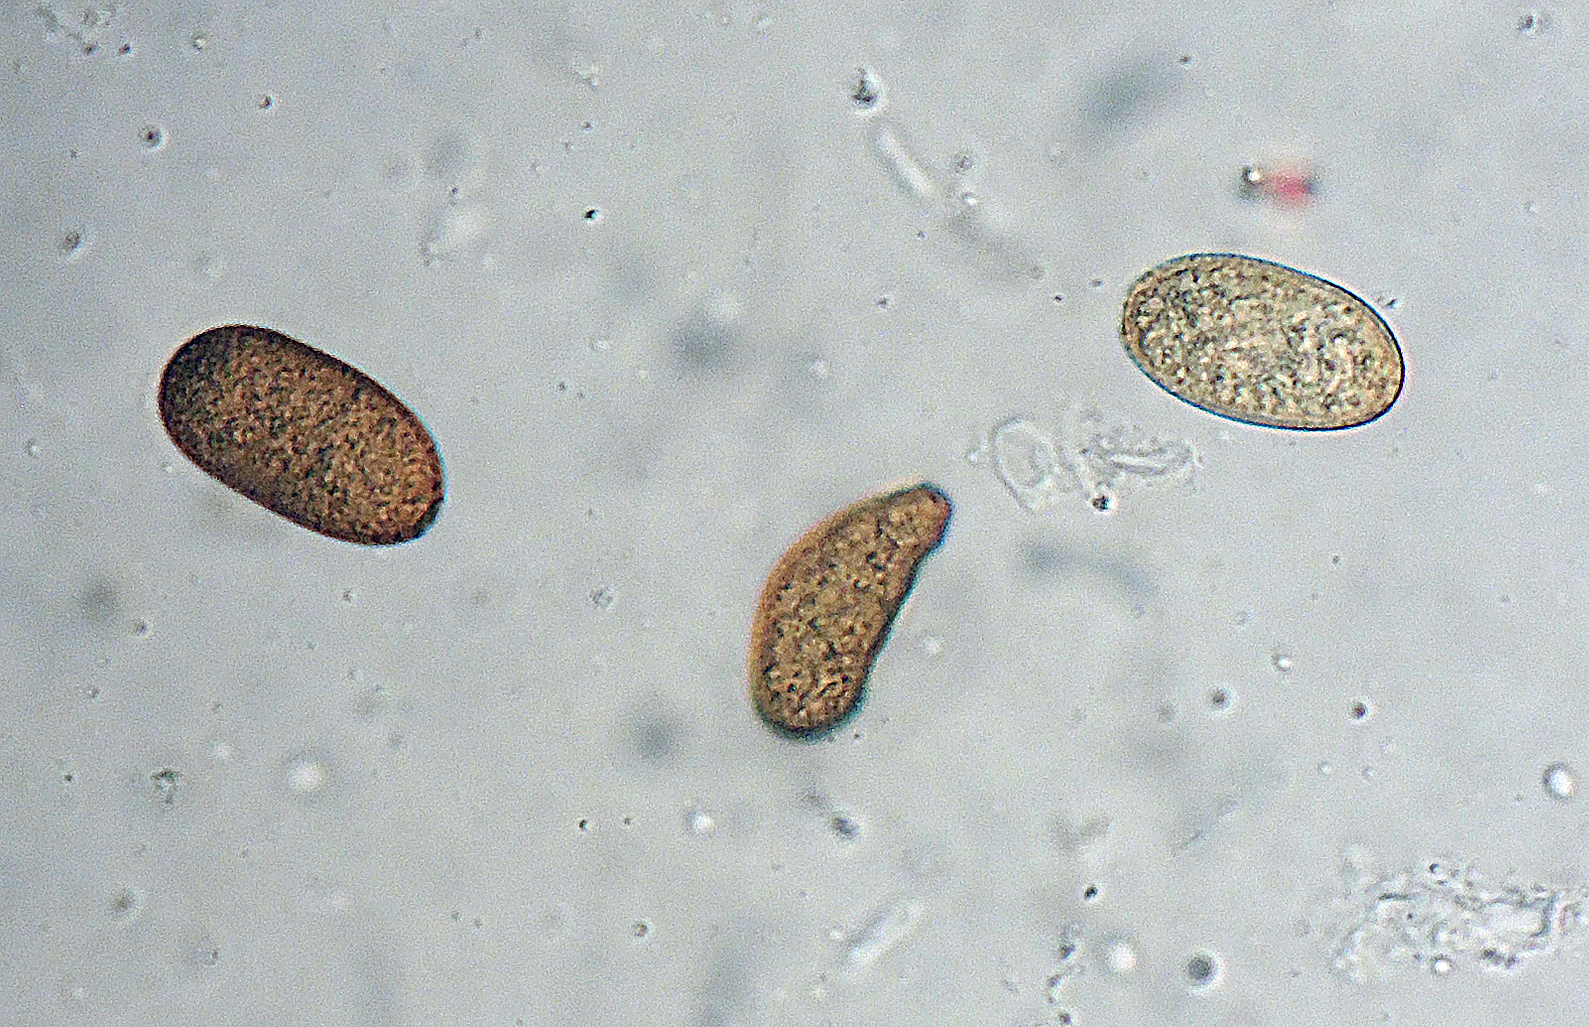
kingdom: Fungi
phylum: Ascomycota
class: Dothideomycetes
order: Botryosphaeriales
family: Botryosphaeriaceae
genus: Diplodia
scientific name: Diplodia crataegi
